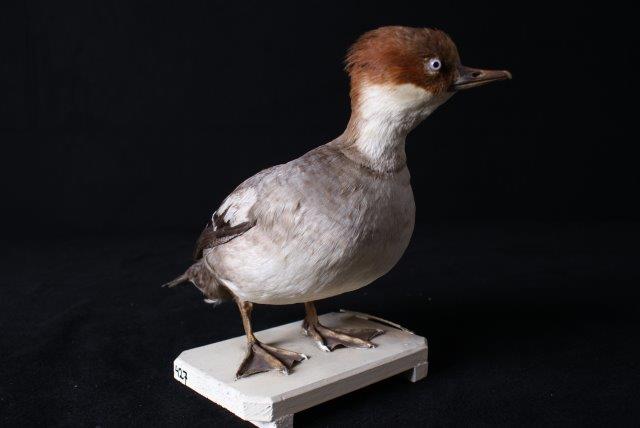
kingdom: Animalia
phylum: Chordata
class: Aves
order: Anseriformes
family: Anatidae
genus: Mergellus
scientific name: Mergellus albellus
